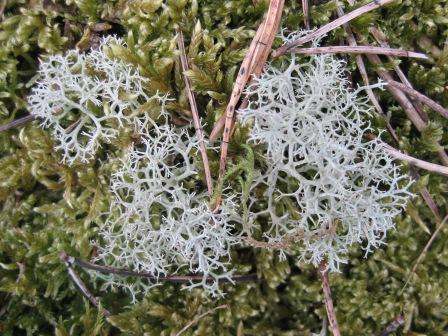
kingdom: Fungi
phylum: Ascomycota
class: Lecanoromycetes
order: Lecanorales
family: Cladoniaceae
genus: Cladonia
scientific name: Cladonia portentosa
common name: hede-rensdyrlav
